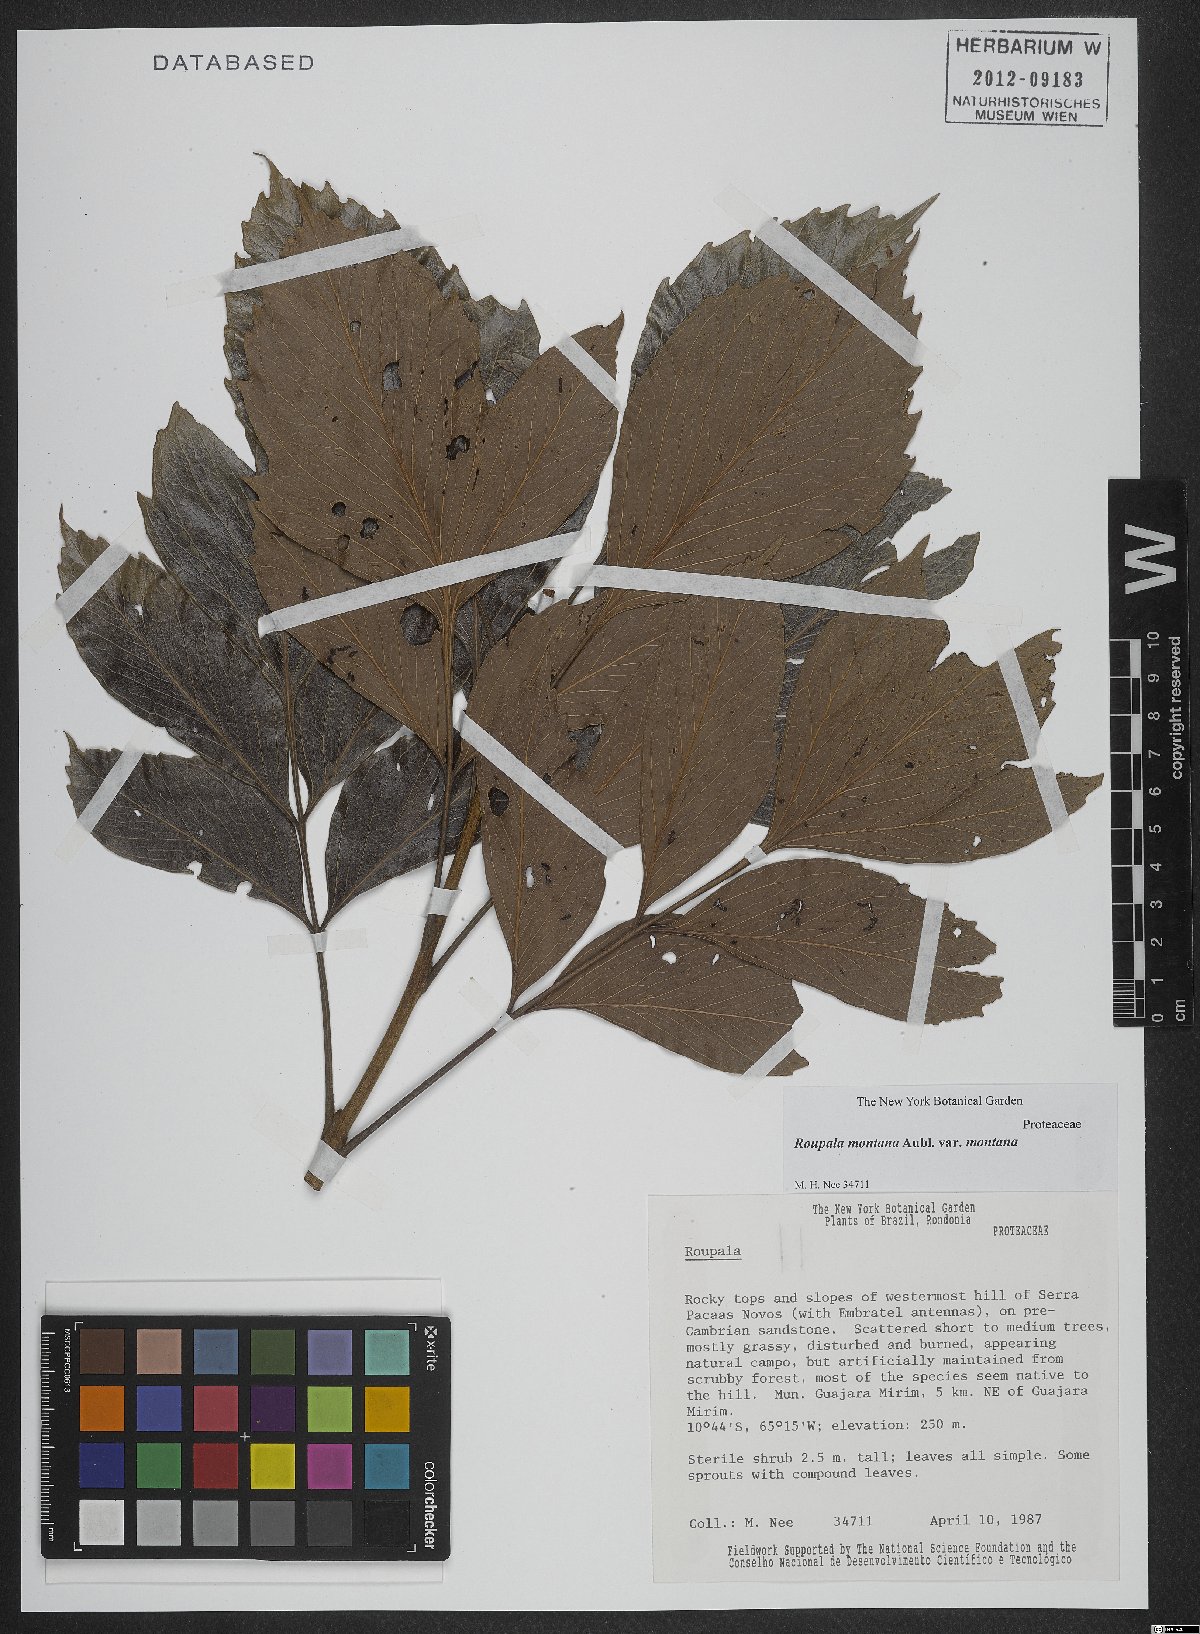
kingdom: Plantae
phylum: Tracheophyta
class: Magnoliopsida
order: Proteales
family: Proteaceae
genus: Roupala
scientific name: Roupala montana
